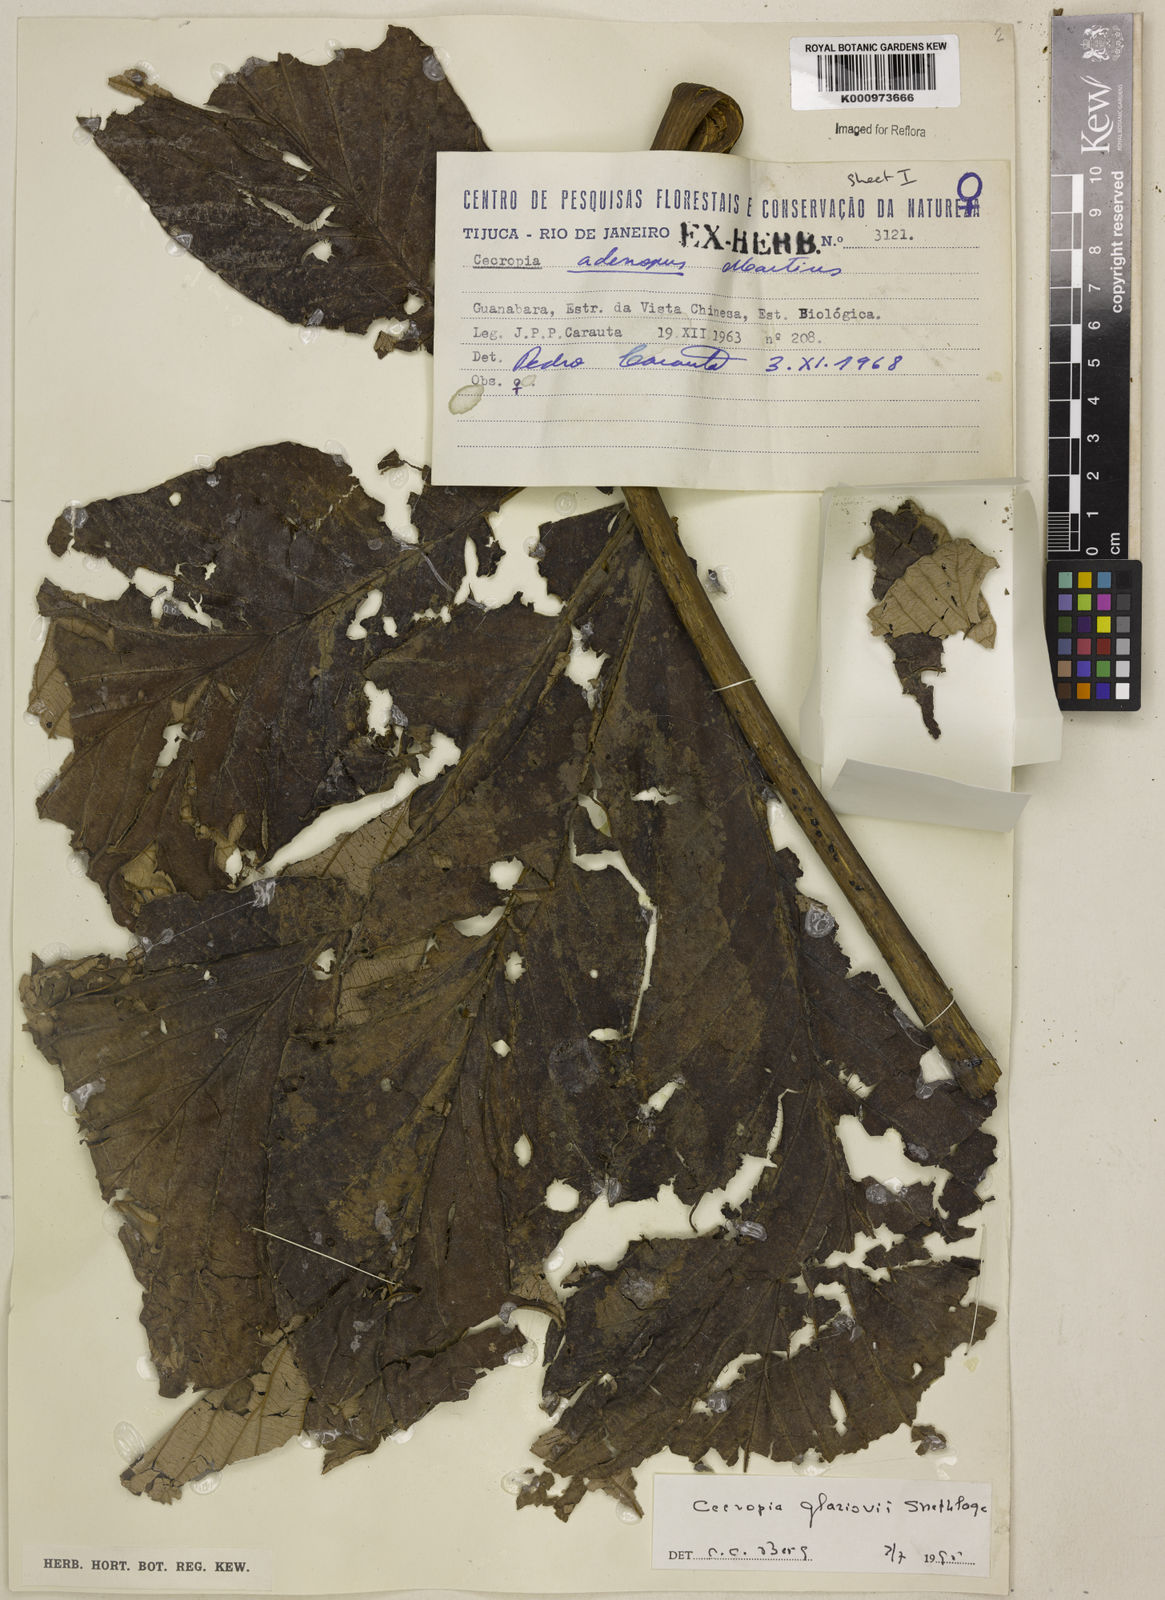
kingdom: Plantae
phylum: Tracheophyta
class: Magnoliopsida
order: Rosales
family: Urticaceae
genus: Cecropia
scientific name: Cecropia glaziovii
